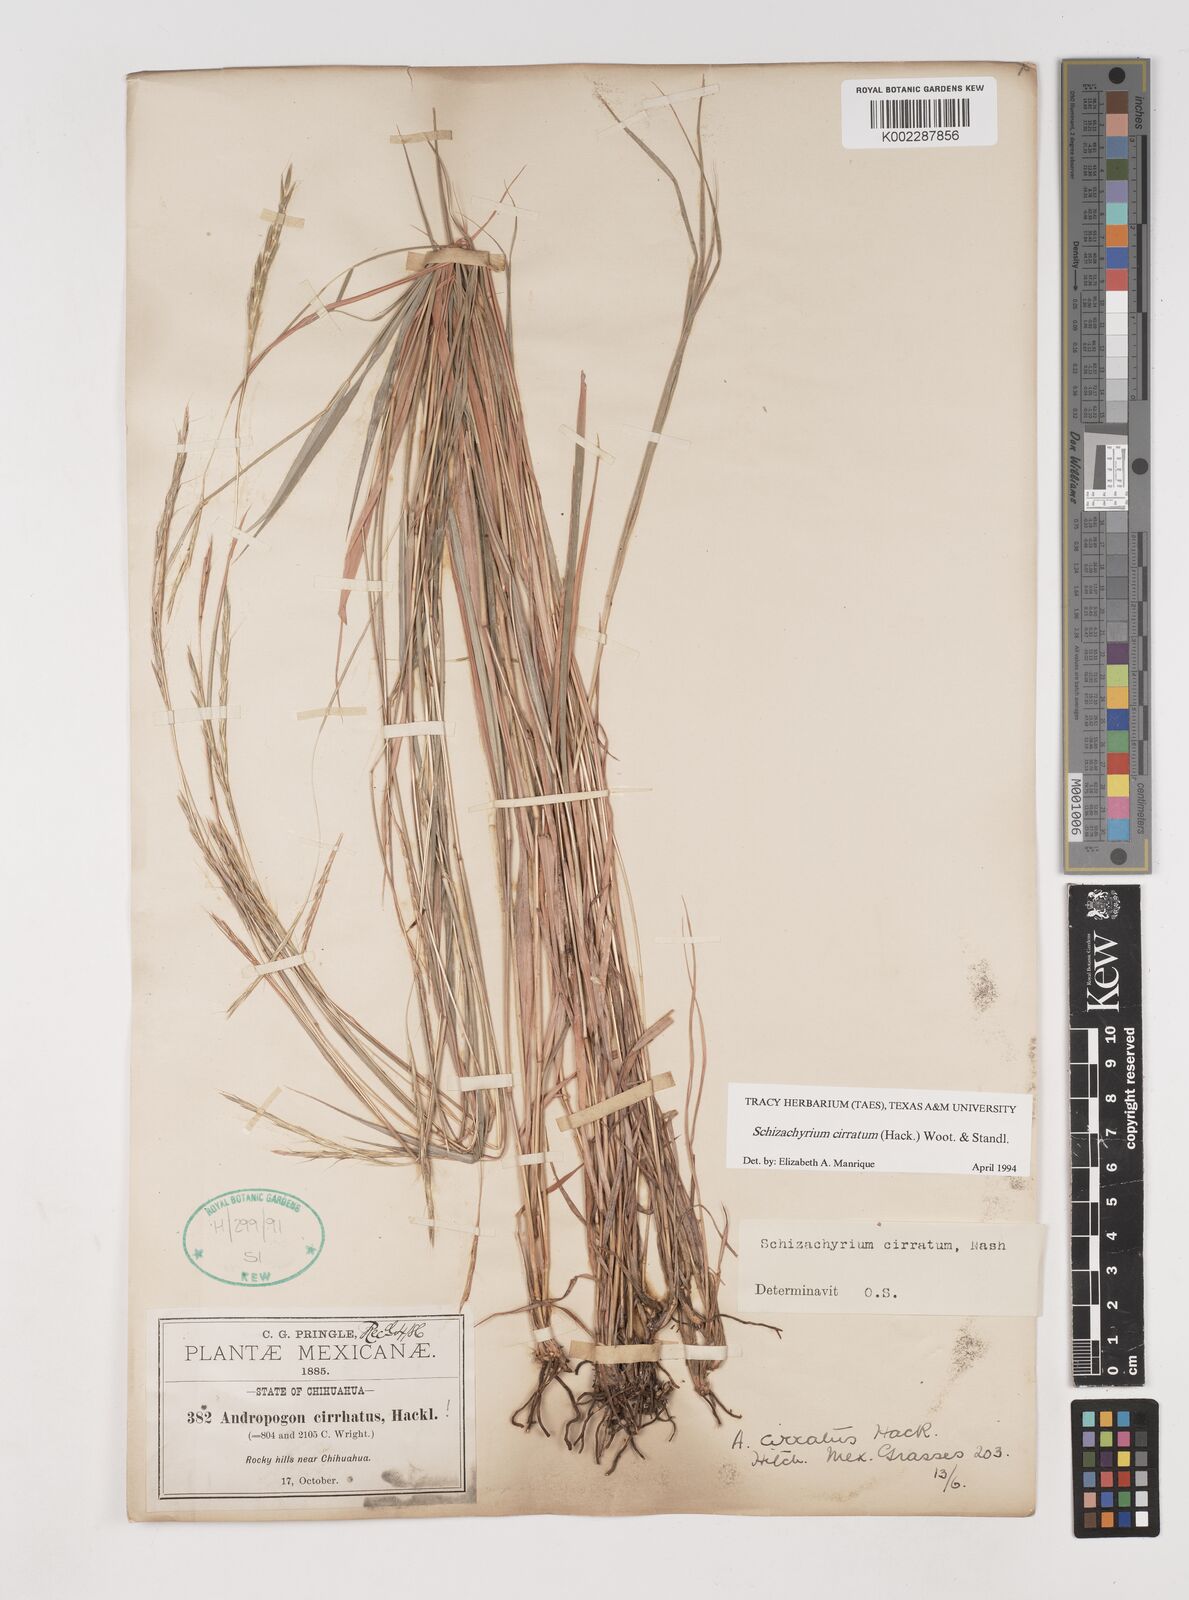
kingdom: Plantae
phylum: Tracheophyta
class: Liliopsida
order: Poales
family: Poaceae
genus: Andropogon
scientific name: Andropogon cirratus
